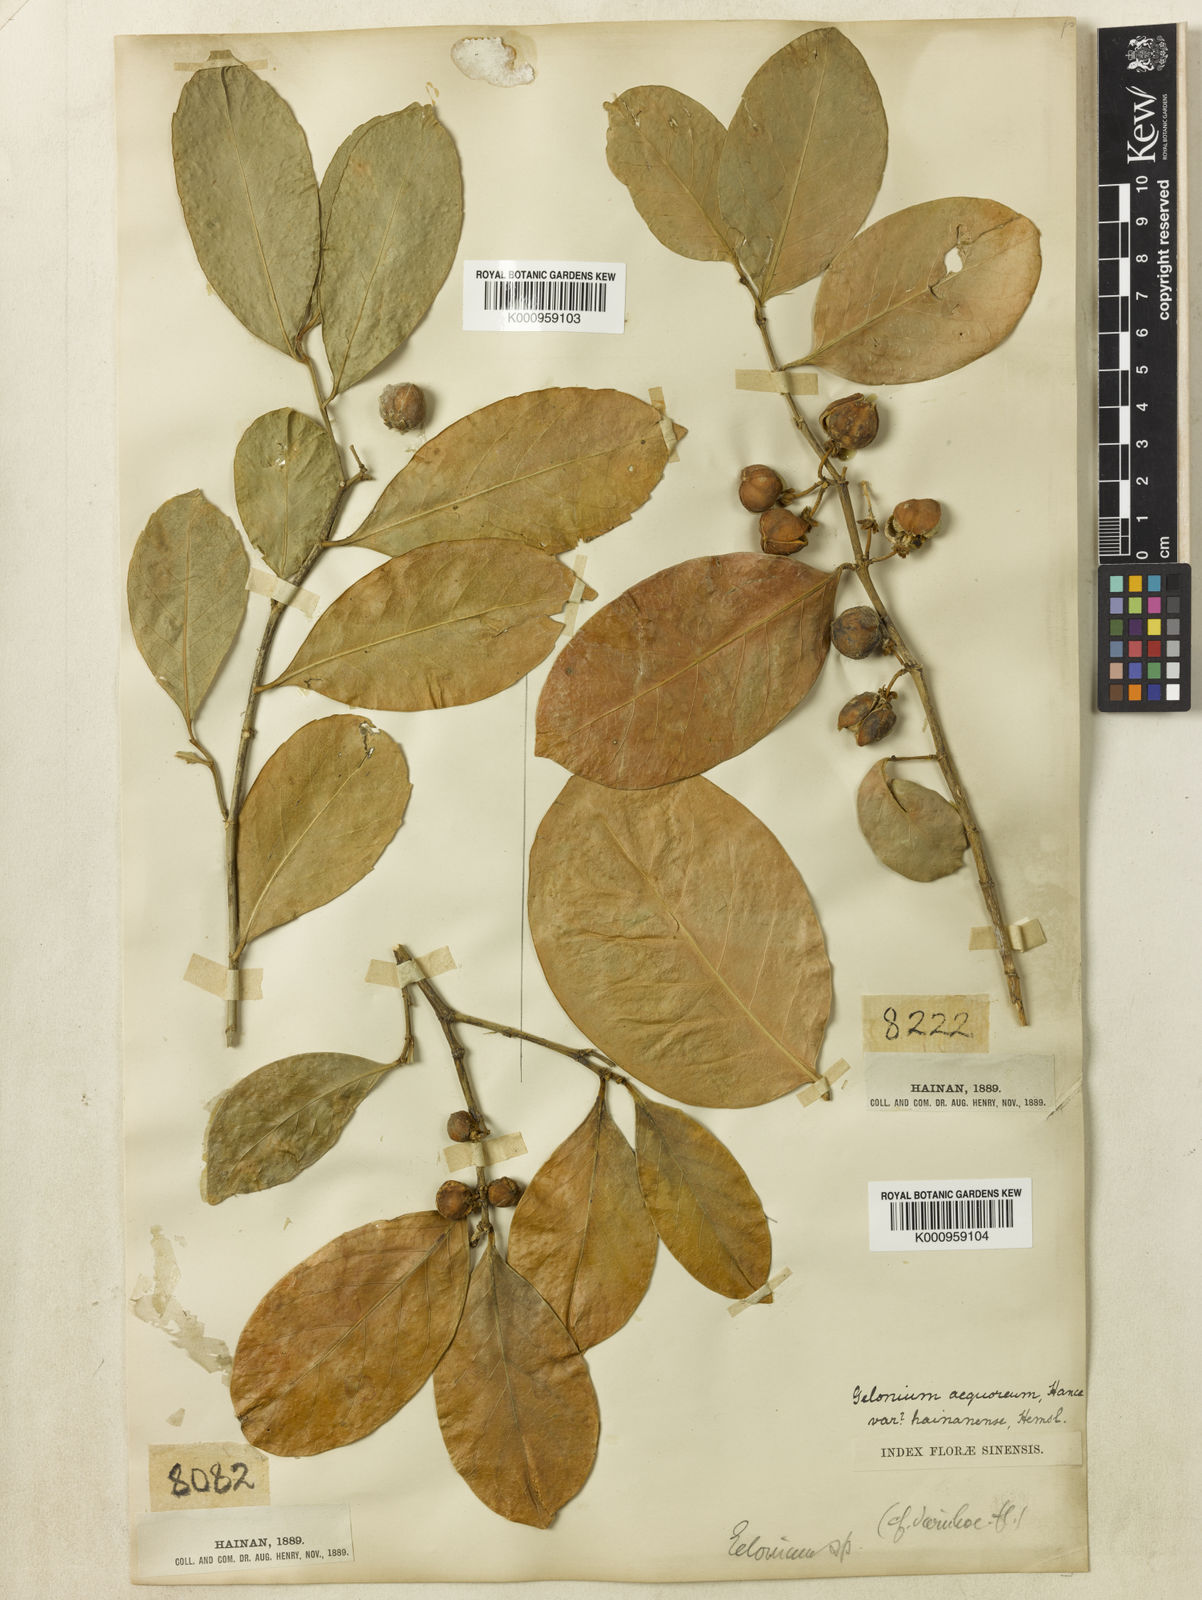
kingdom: Plantae
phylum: Tracheophyta
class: Magnoliopsida
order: Malpighiales
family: Euphorbiaceae
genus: Suregada
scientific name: Suregada aequorea
